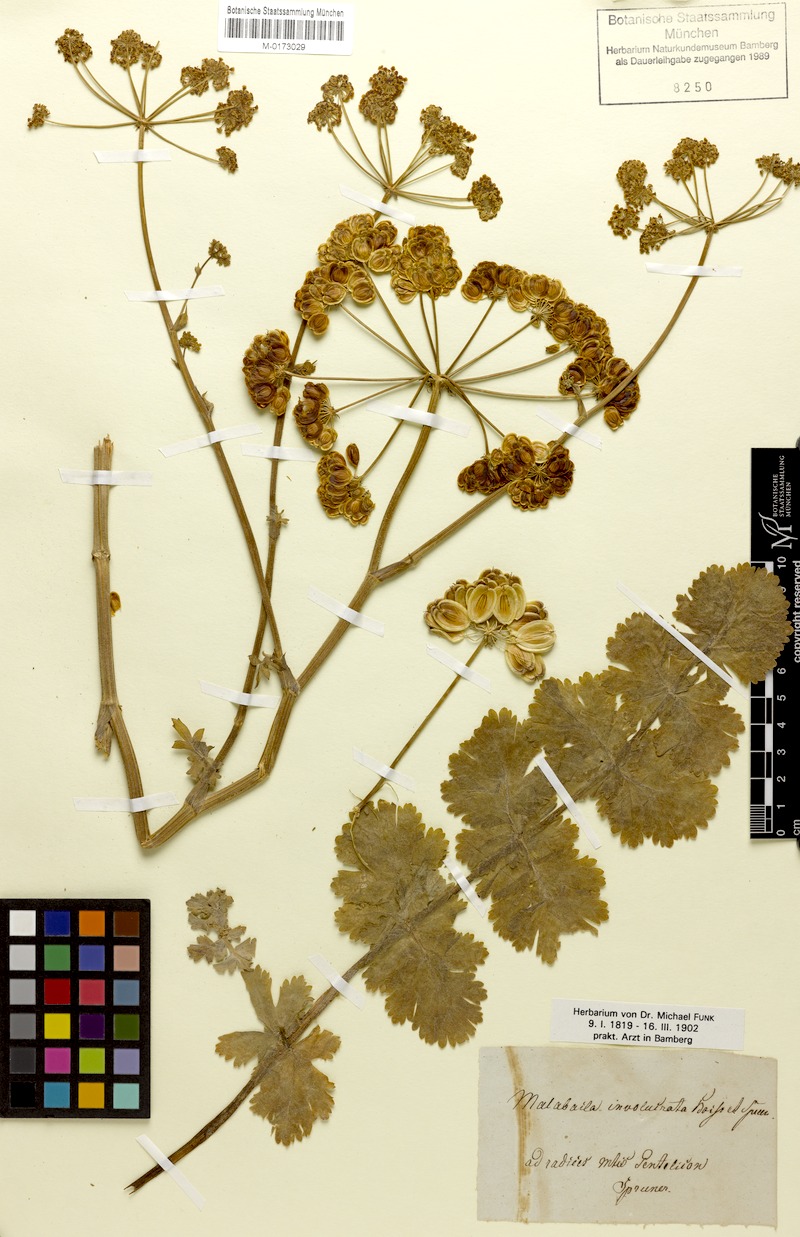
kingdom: Plantae
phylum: Tracheophyta
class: Magnoliopsida
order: Apiales
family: Apiaceae
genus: Leiotulus
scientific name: Leiotulus involucratus
